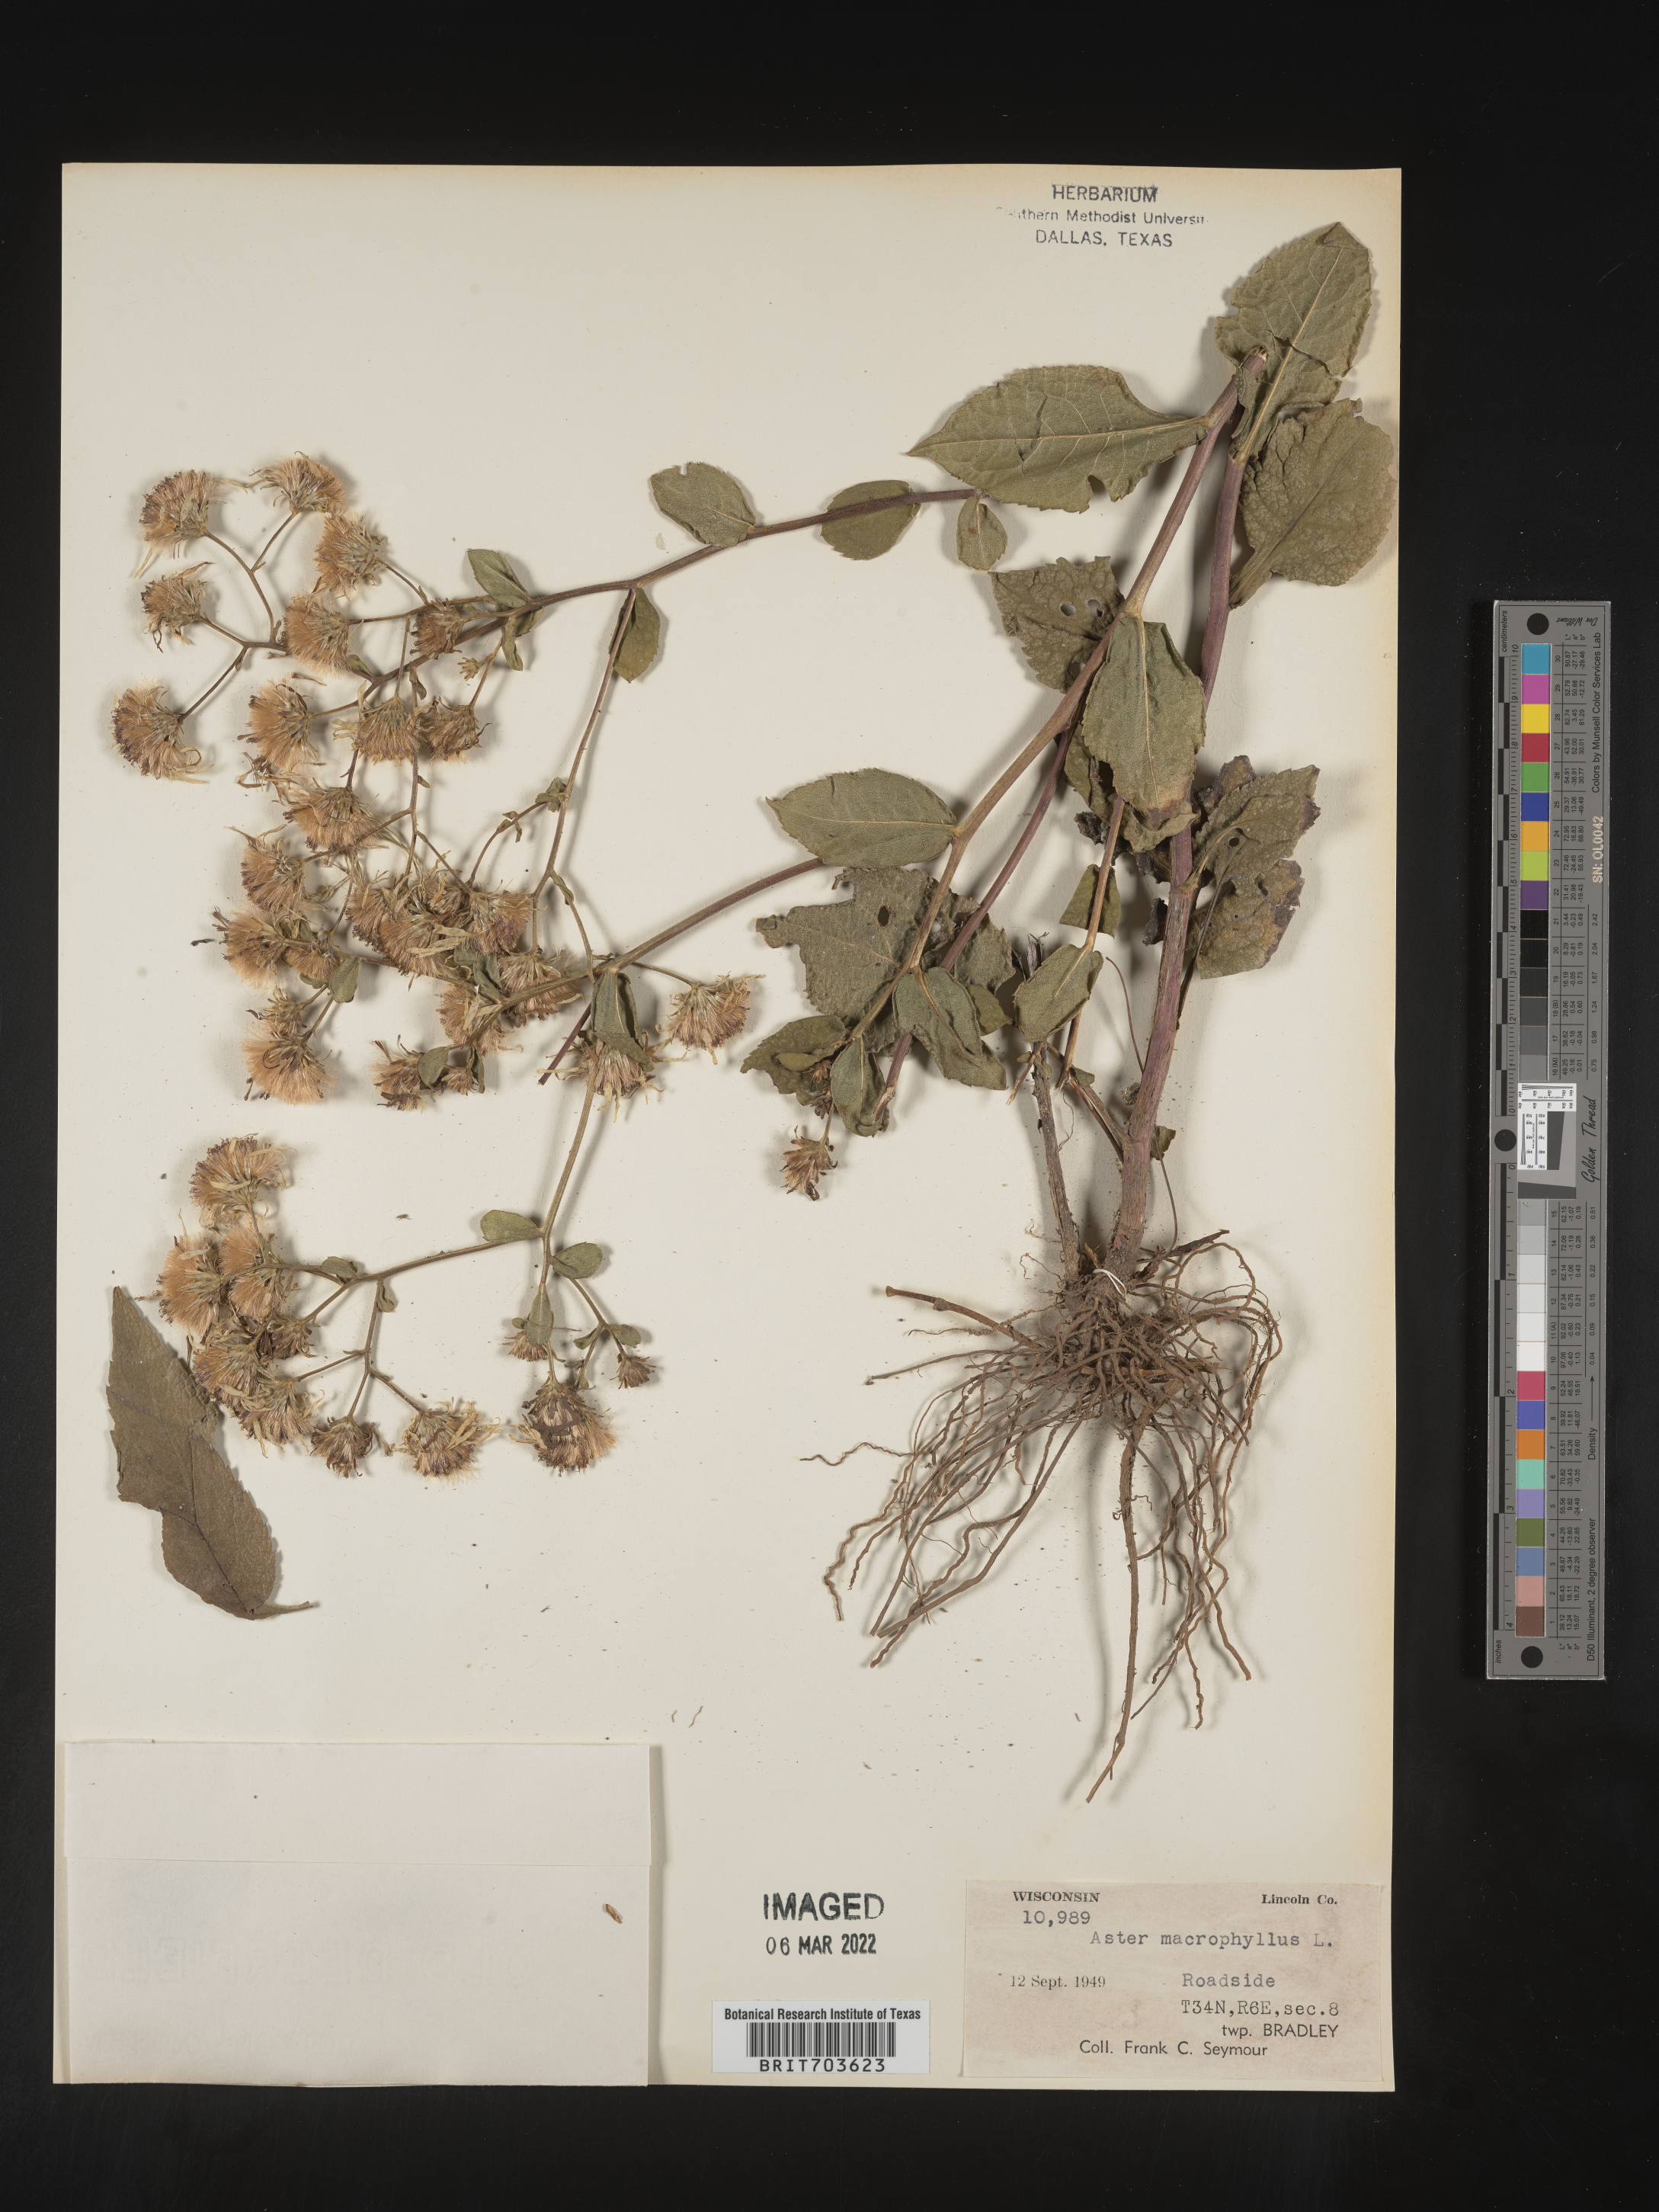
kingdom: Plantae
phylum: Tracheophyta
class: Magnoliopsida
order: Asterales
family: Asteraceae
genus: Eurybia
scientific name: Eurybia macrophylla
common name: Big-leaved aster
